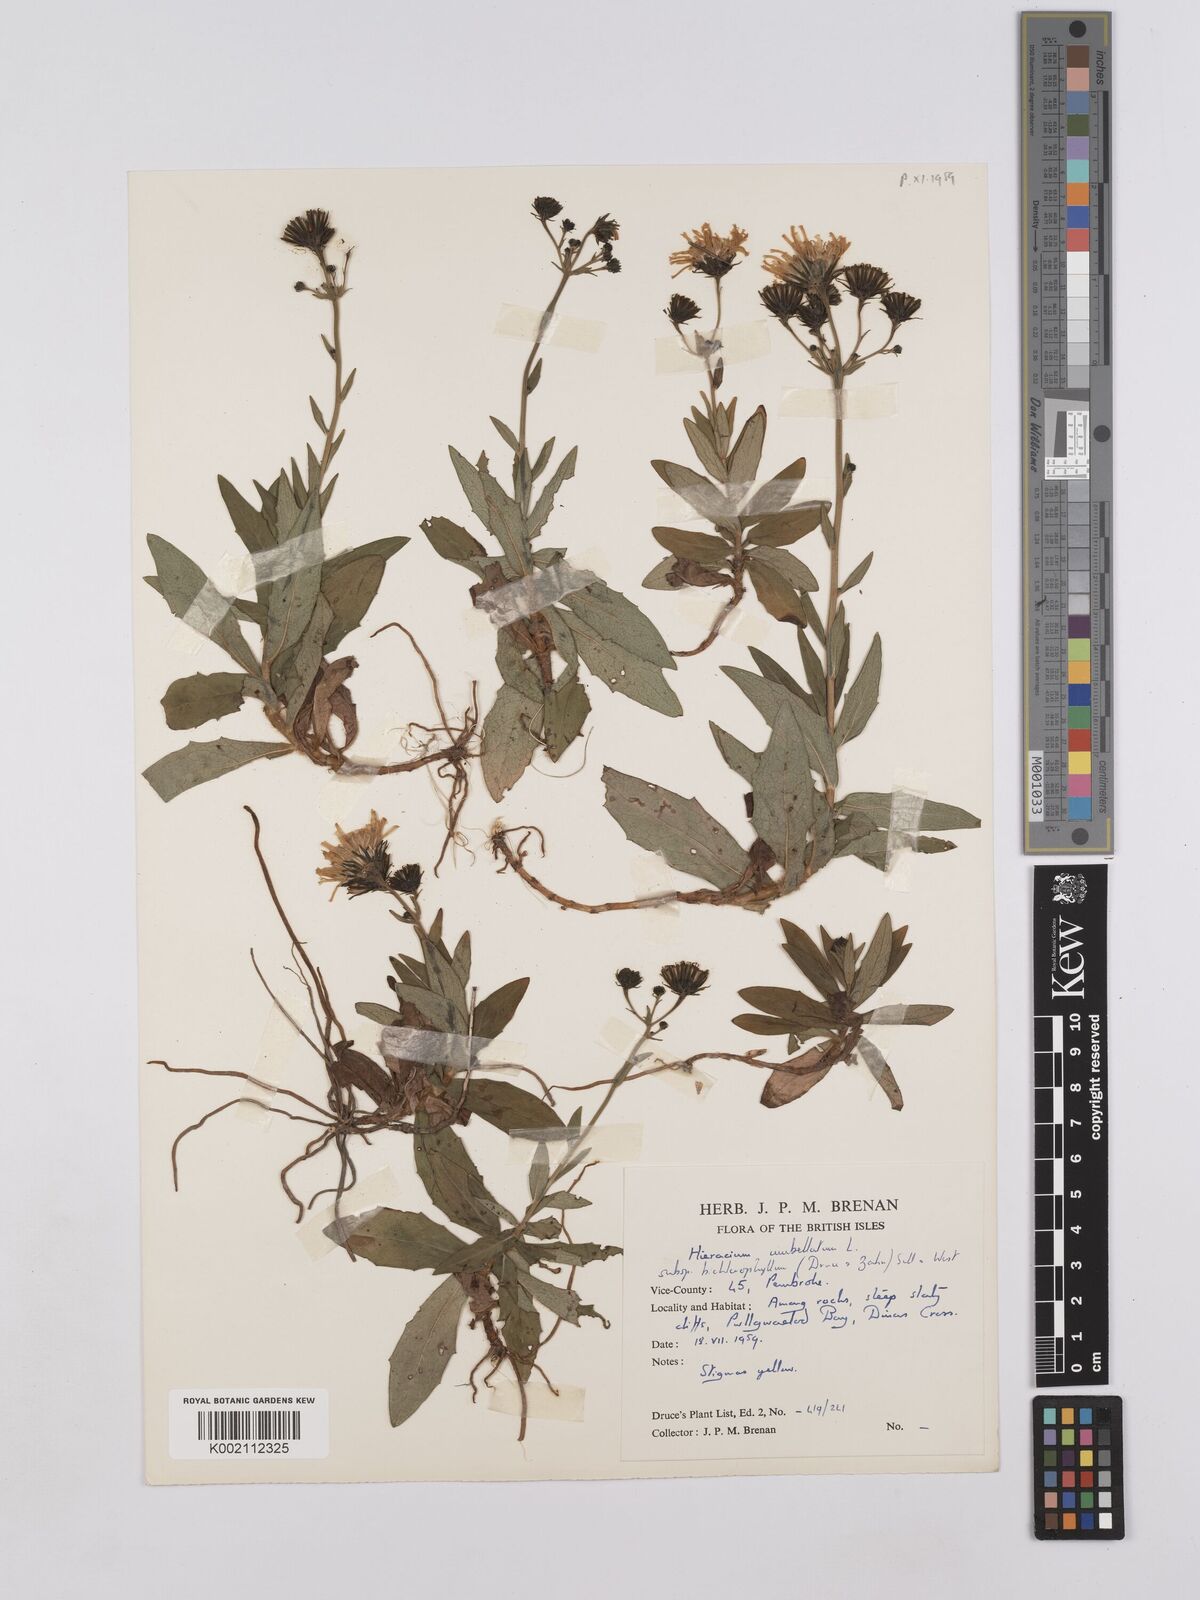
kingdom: Plantae
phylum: Tracheophyta
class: Magnoliopsida
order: Asterales
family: Asteraceae
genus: Hieracium
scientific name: Hieracium umbellatum
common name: Northern hawkweed
